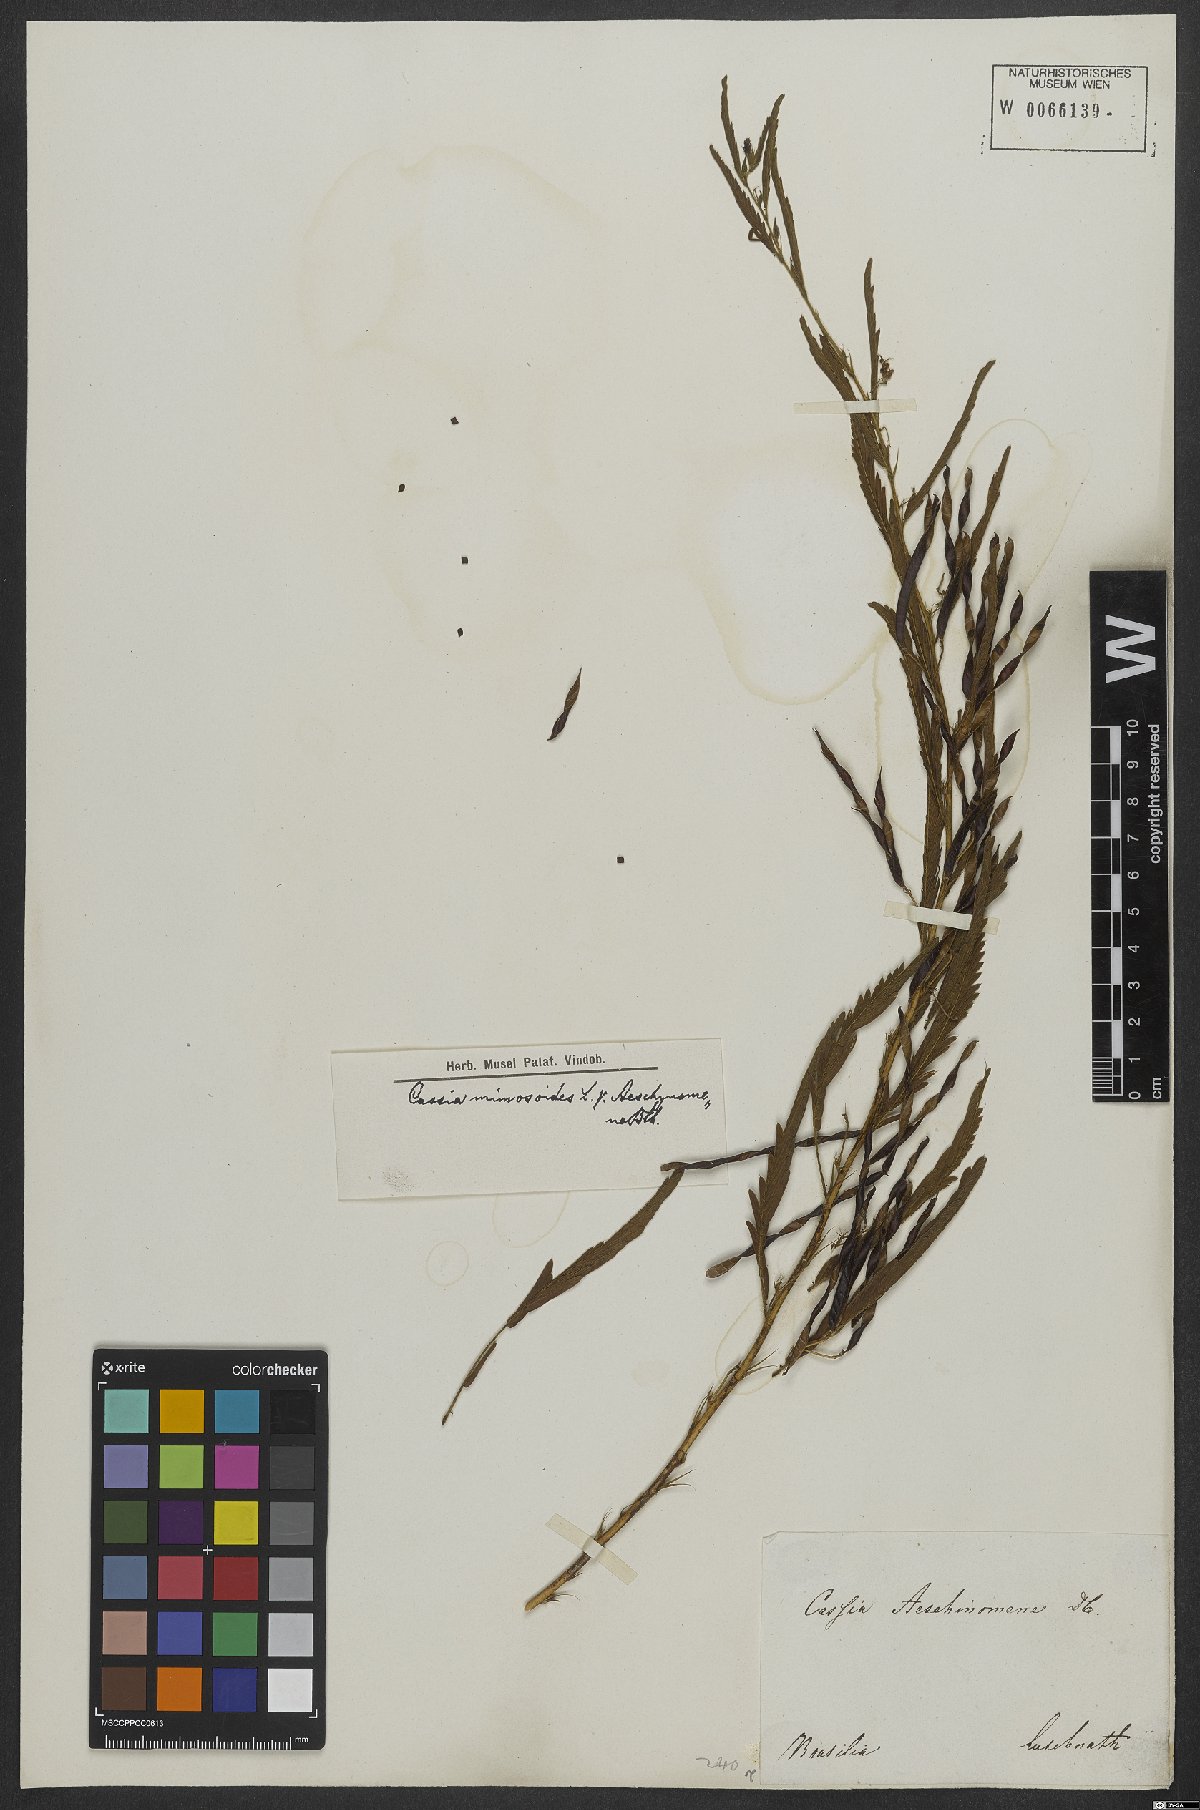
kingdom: Plantae
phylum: Tracheophyta
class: Magnoliopsida
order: Fabales
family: Fabaceae
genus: Chamaecrista
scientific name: Chamaecrista nictitans
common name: Sensitive cassia
